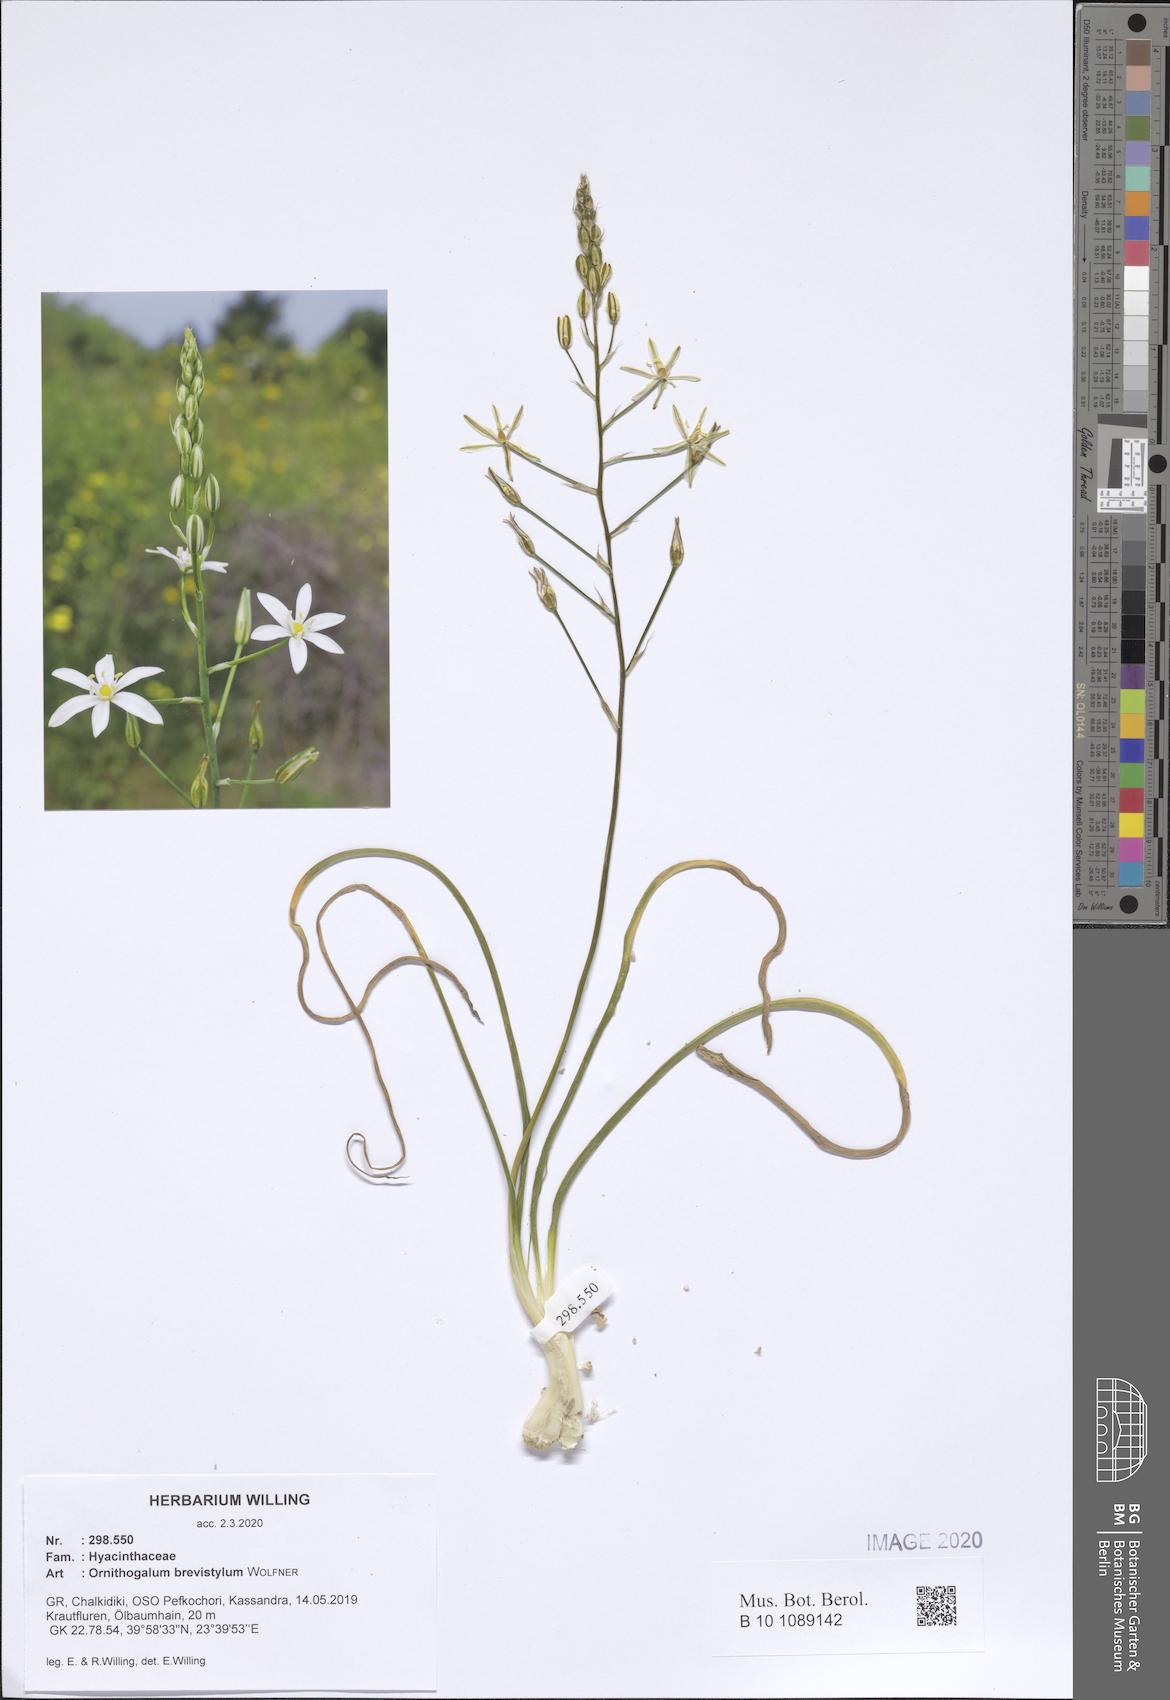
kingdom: Plantae
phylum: Tracheophyta
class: Liliopsida
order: Asparagales
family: Asparagaceae
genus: Ornithogalum
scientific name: Ornithogalum pyramidale
